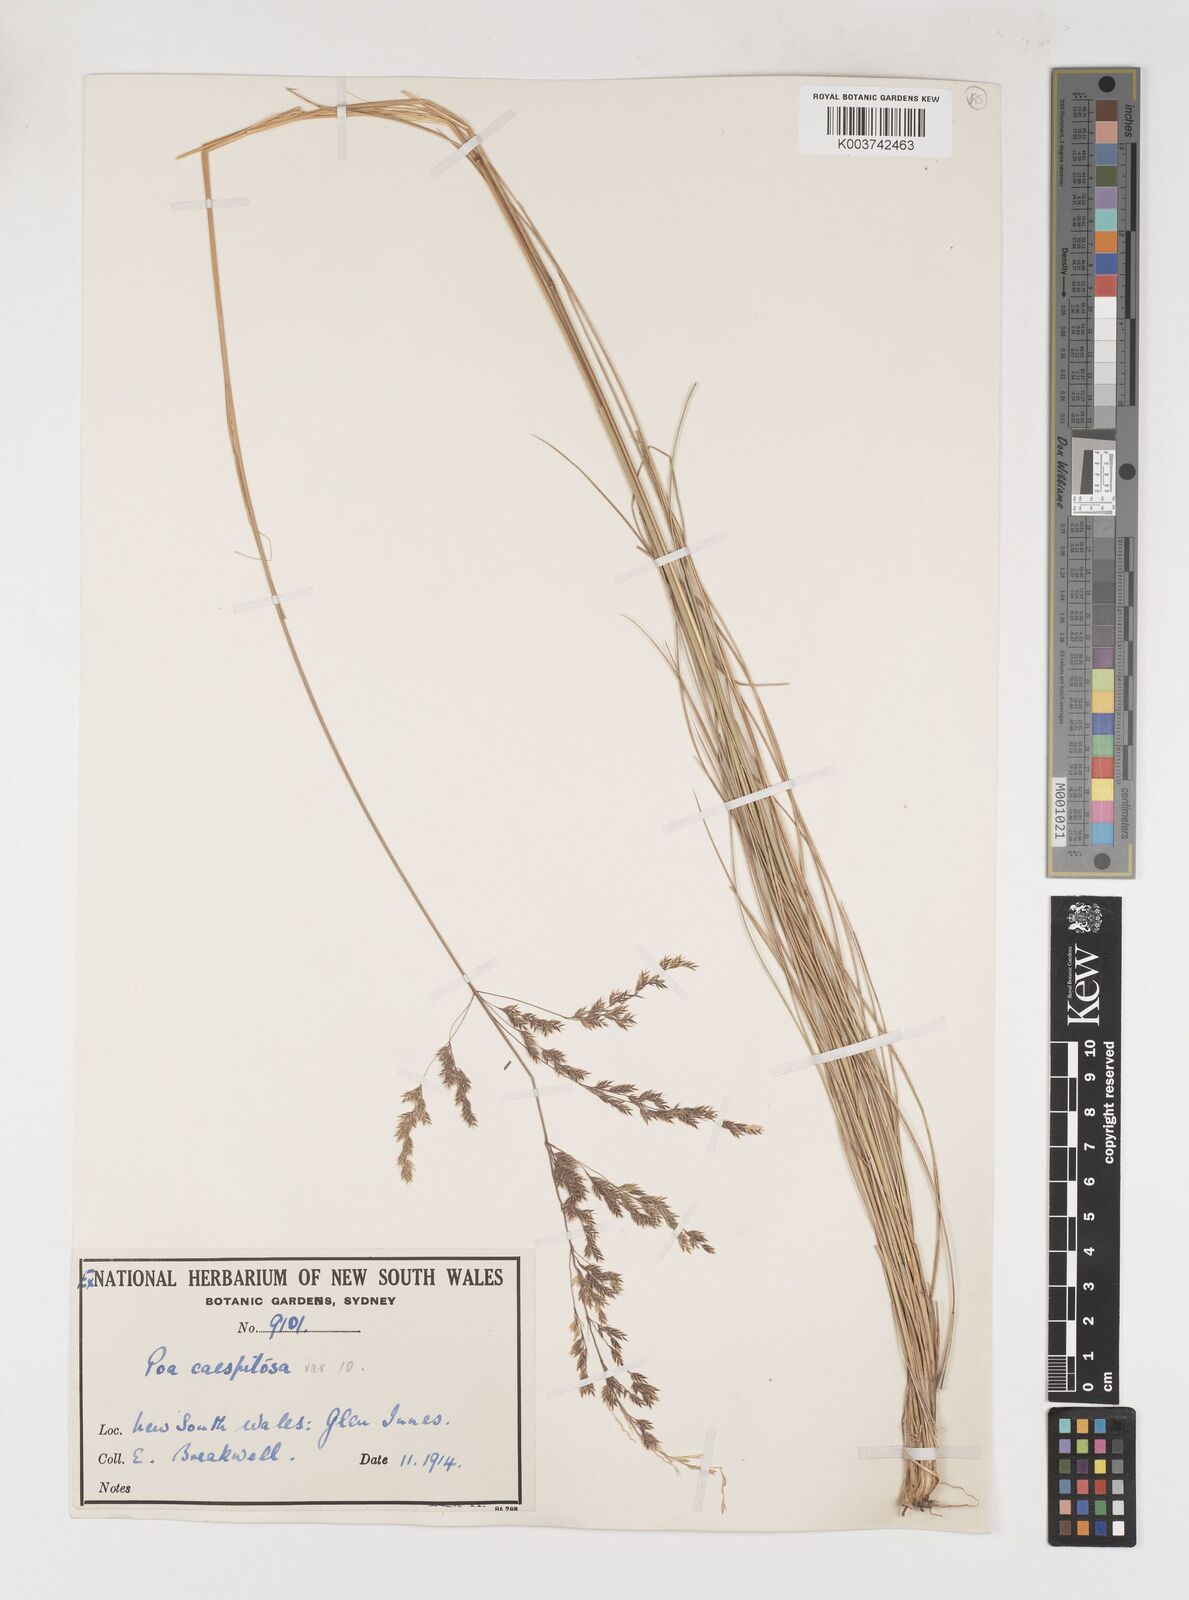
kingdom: Plantae
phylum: Tracheophyta
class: Liliopsida
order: Poales
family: Poaceae
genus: Poa
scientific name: Poa
